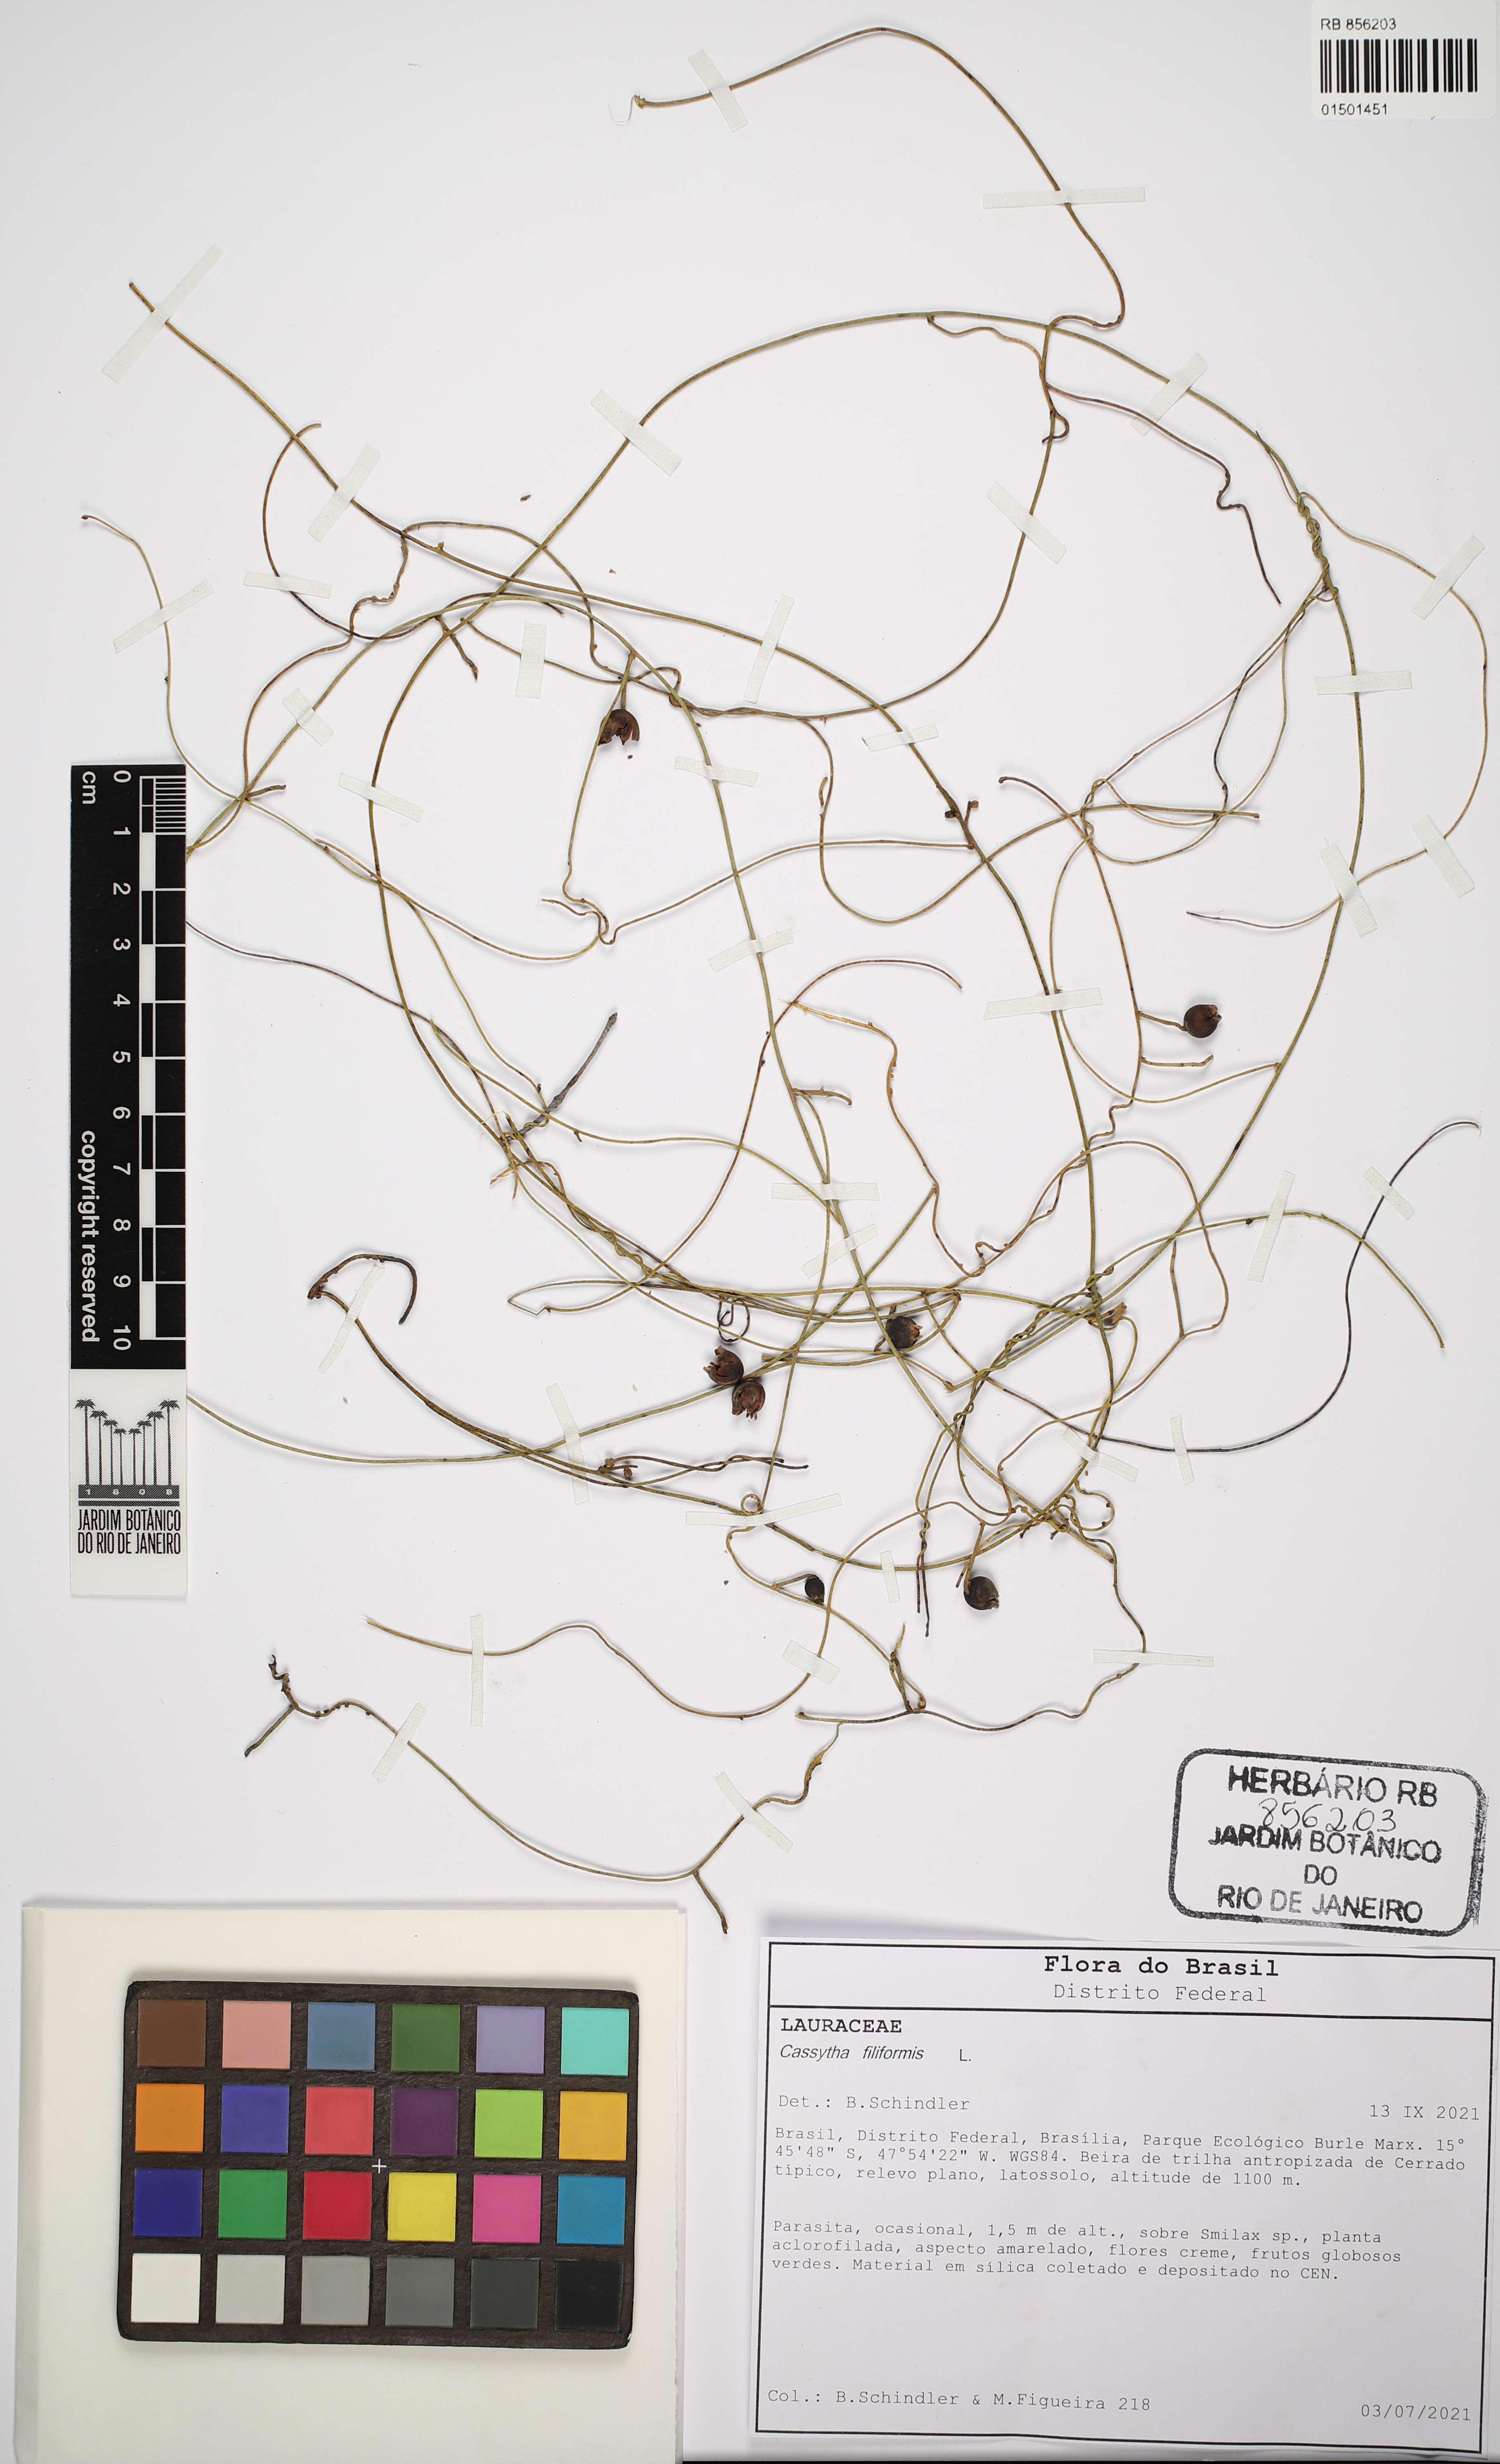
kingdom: Plantae
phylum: Tracheophyta
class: Magnoliopsida
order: Laurales
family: Lauraceae
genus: Cassytha
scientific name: Cassytha filiformis
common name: Dodder-laurel
